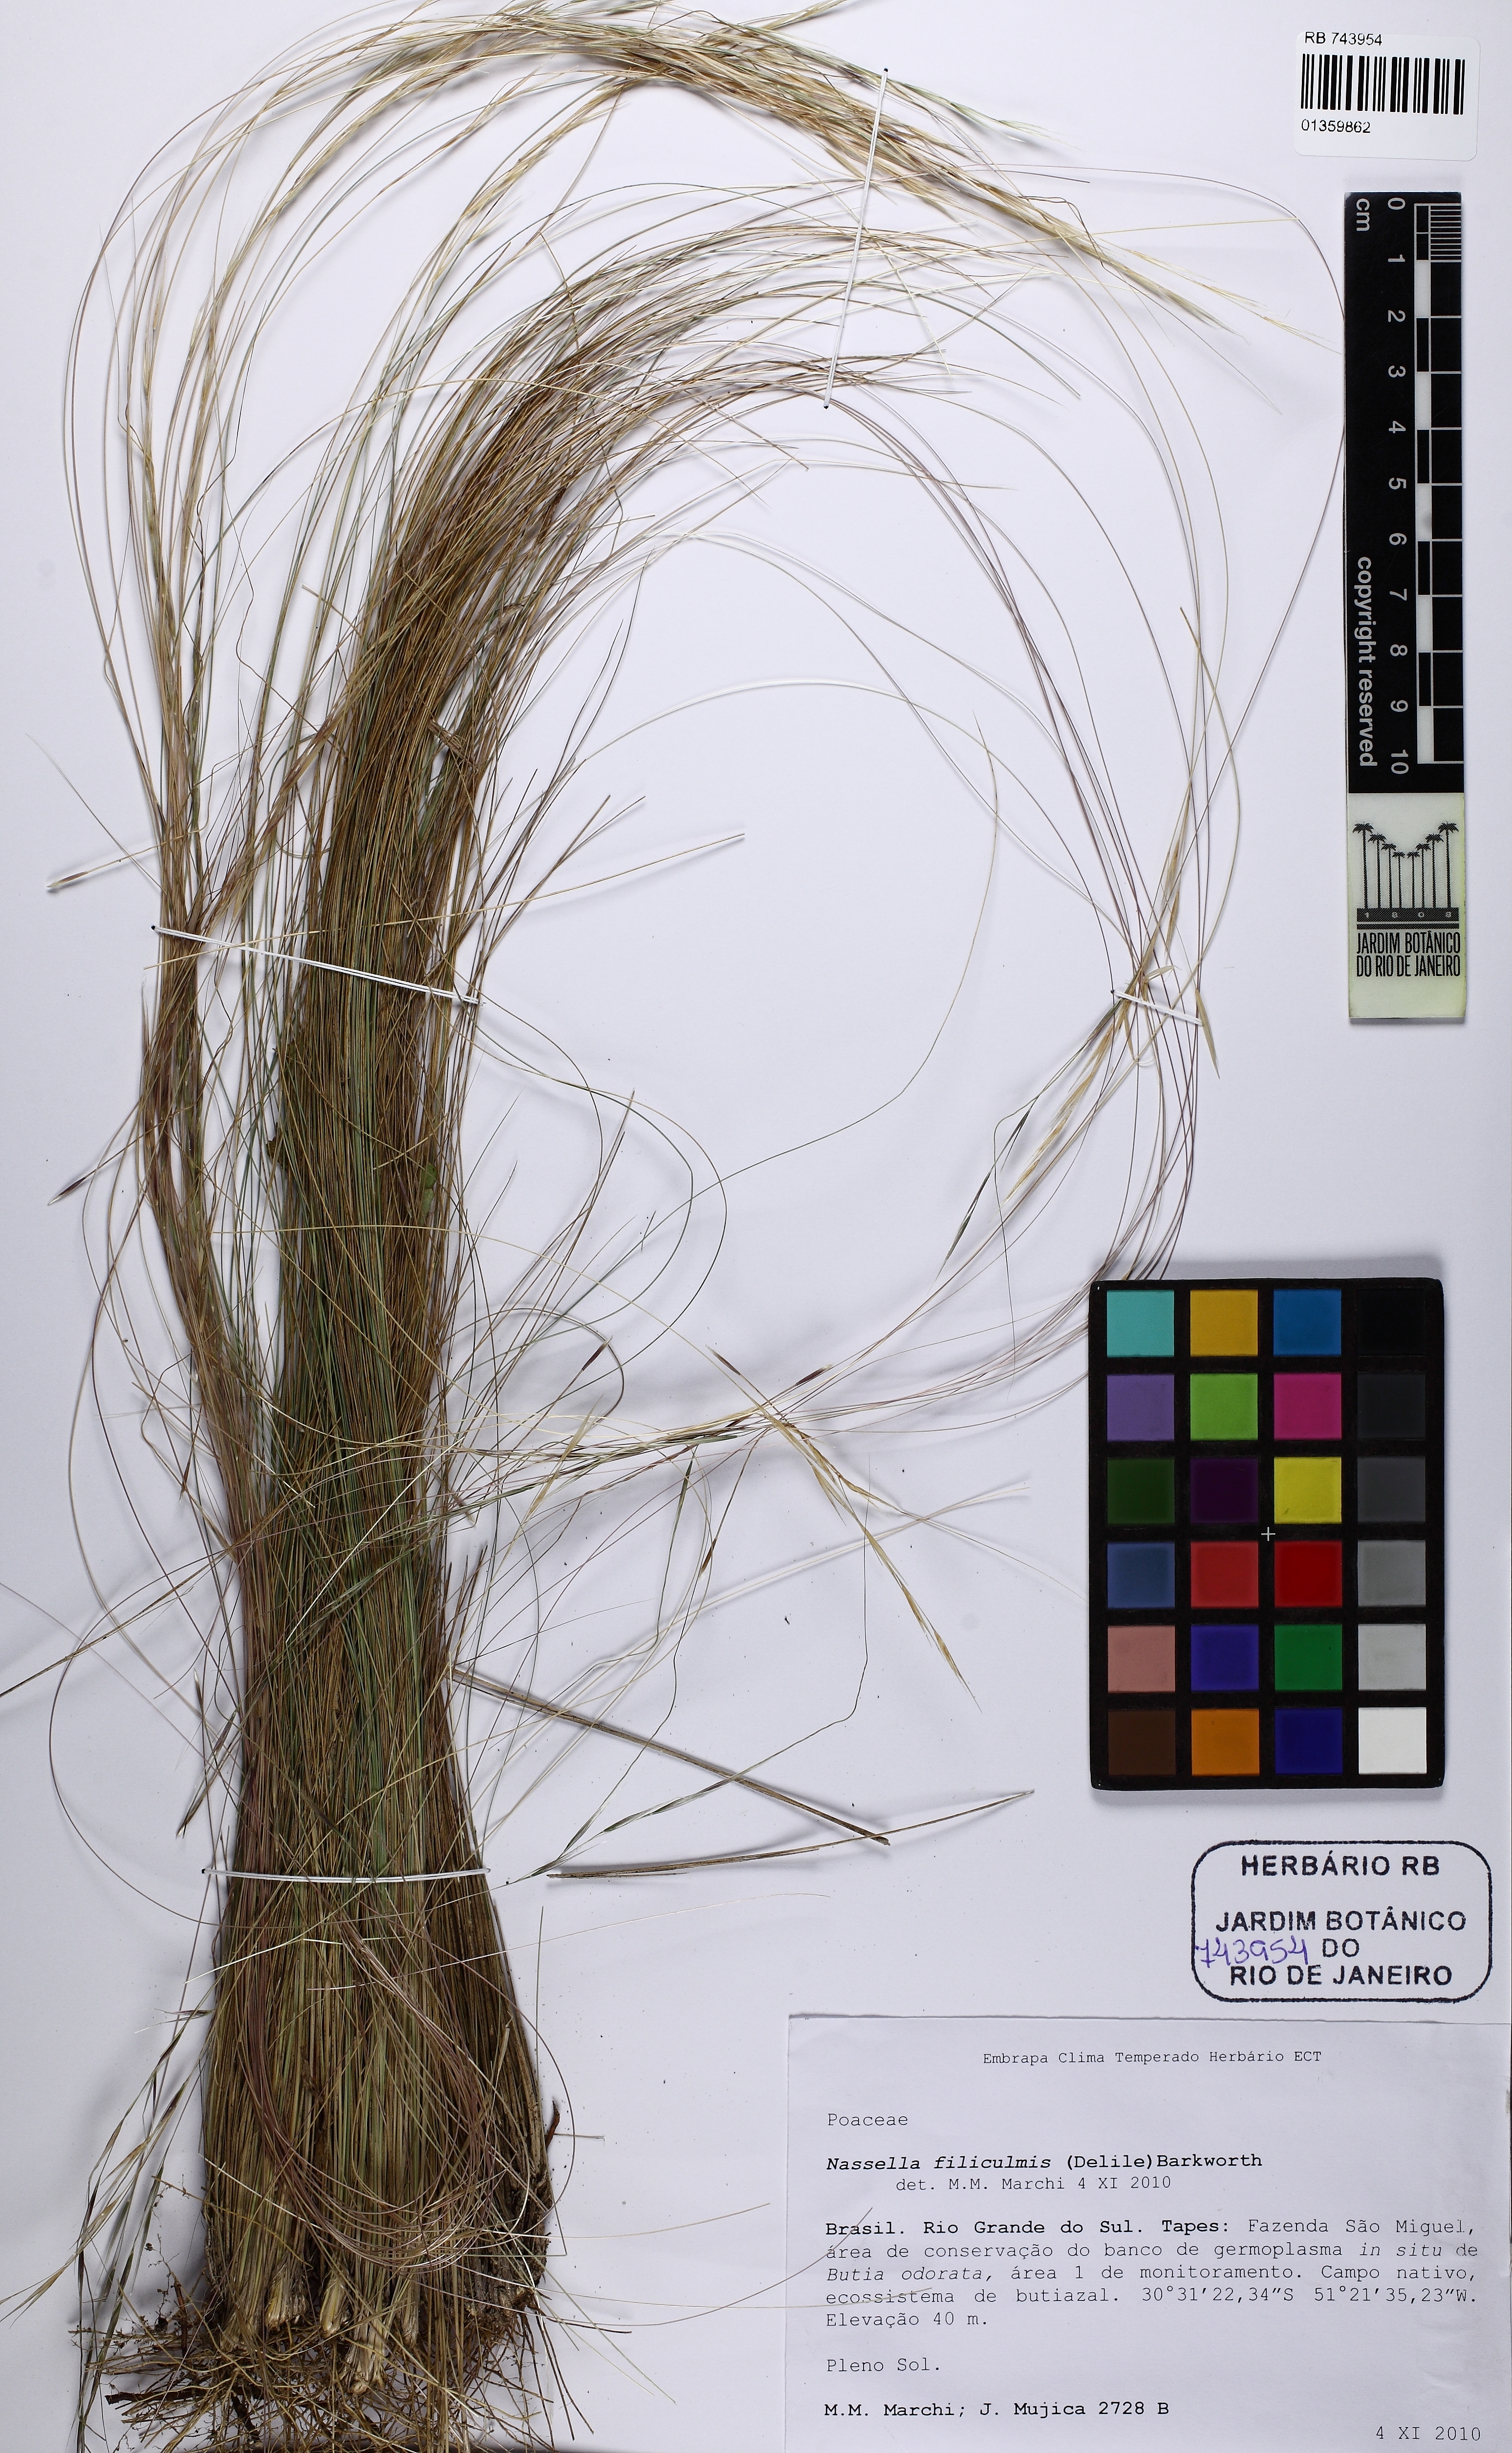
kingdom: Plantae
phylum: Tracheophyta
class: Liliopsida
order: Poales
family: Poaceae
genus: Nassella
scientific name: Nassella filiculmis
